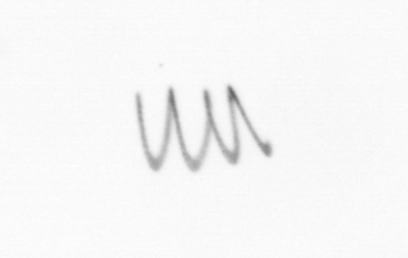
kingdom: Chromista
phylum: Ochrophyta
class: Bacillariophyceae
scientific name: Bacillariophyceae
